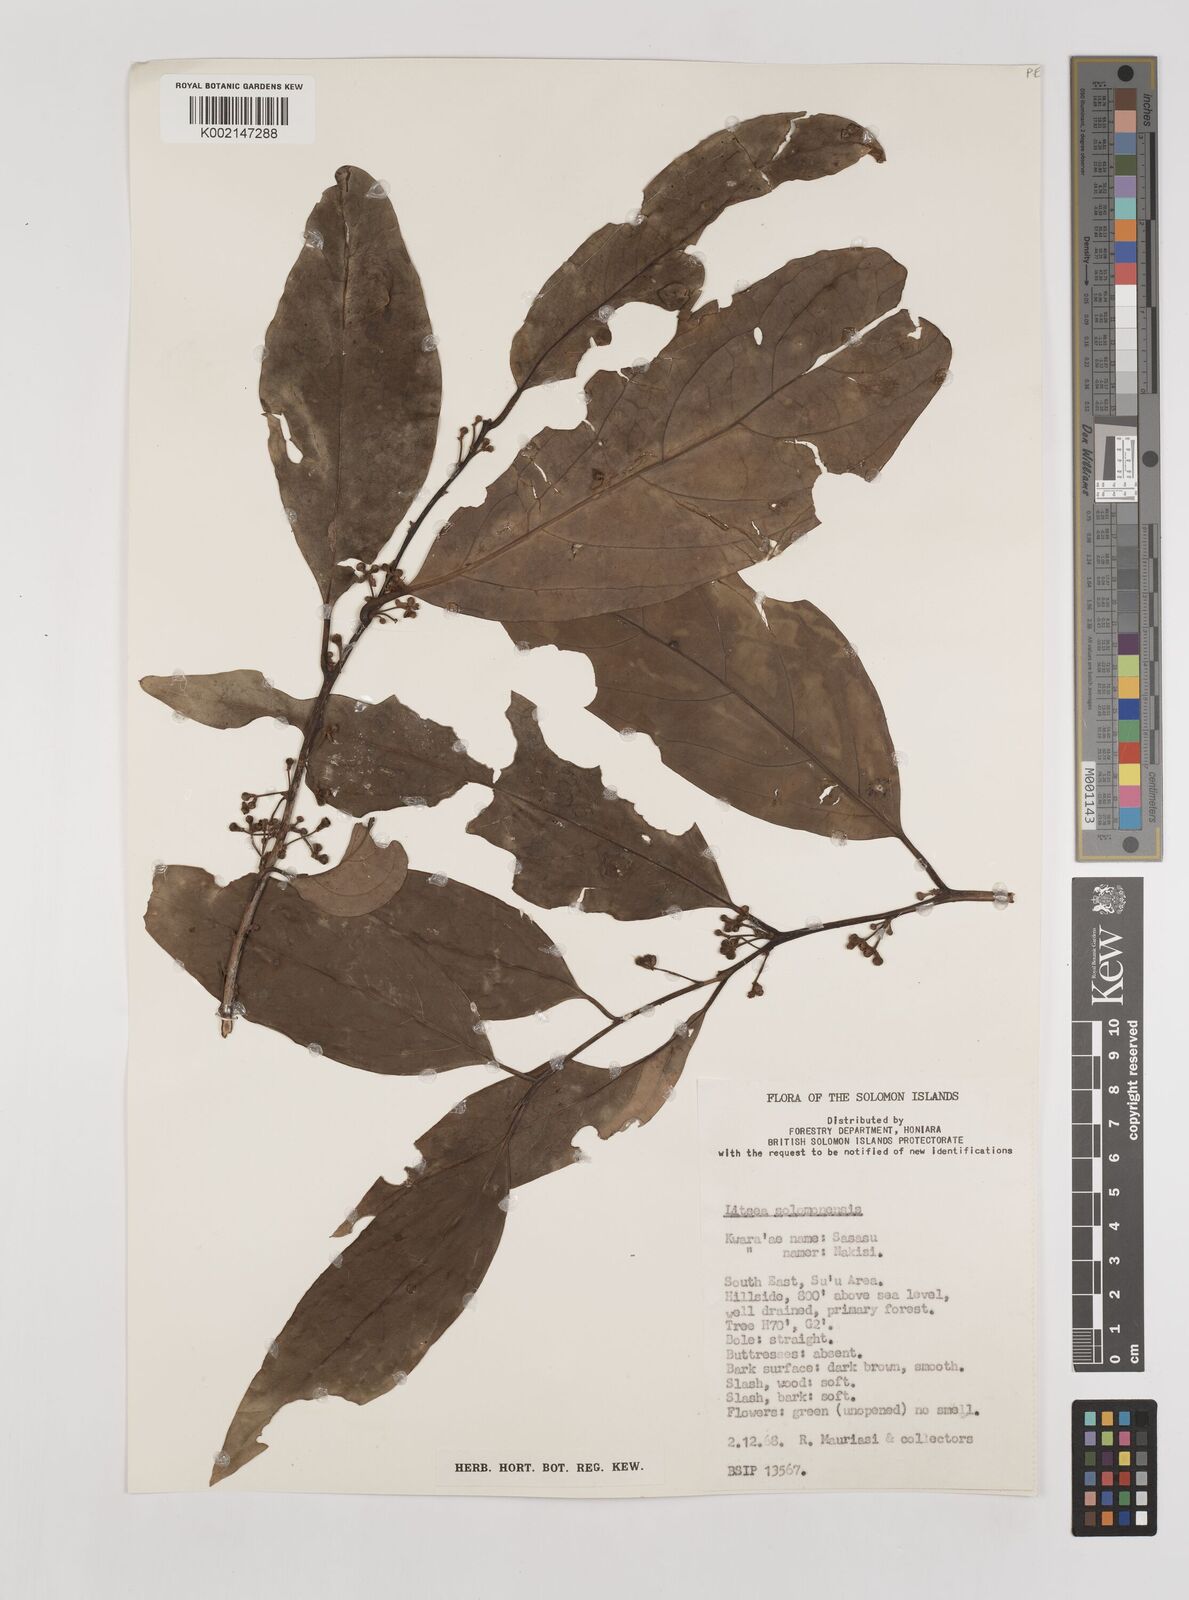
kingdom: Plantae
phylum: Tracheophyta
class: Magnoliopsida
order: Laurales
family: Lauraceae
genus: Litsea
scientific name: Litsea timoriana
